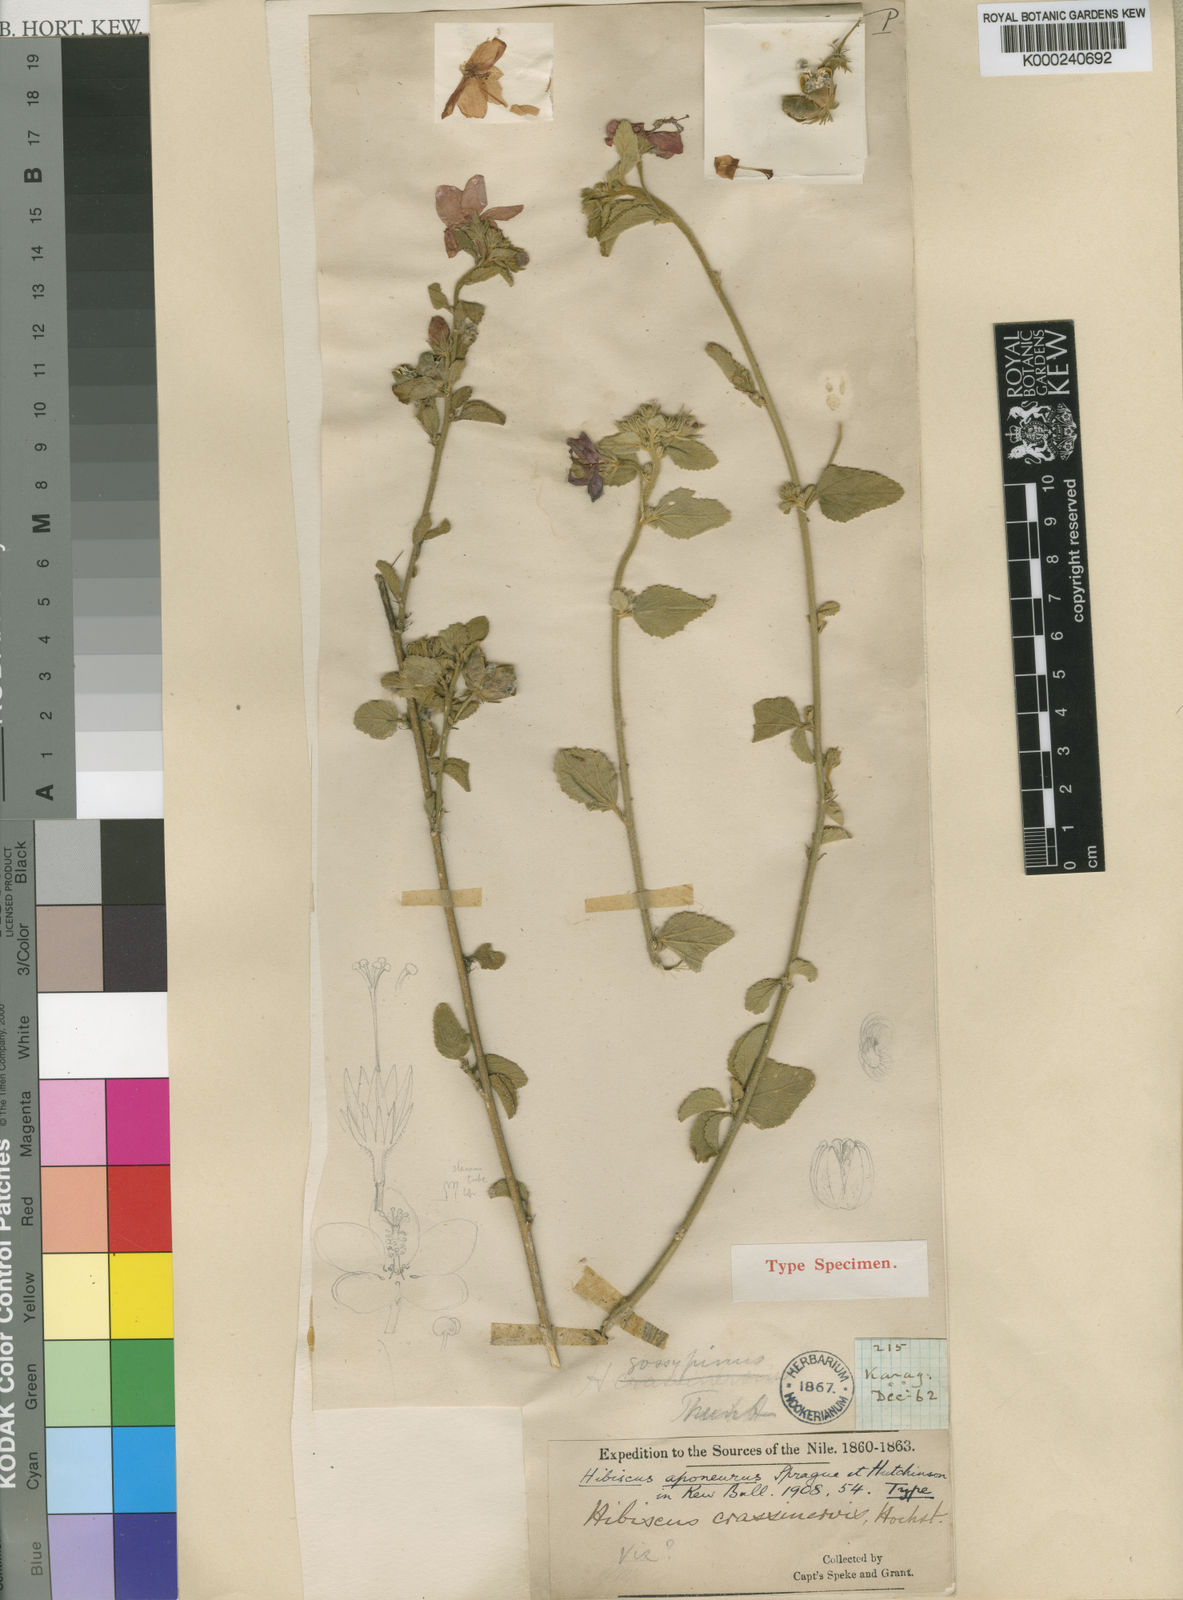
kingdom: Plantae
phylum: Tracheophyta
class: Magnoliopsida
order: Malvales
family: Malvaceae
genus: Hibiscus
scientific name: Hibiscus aponeurus
